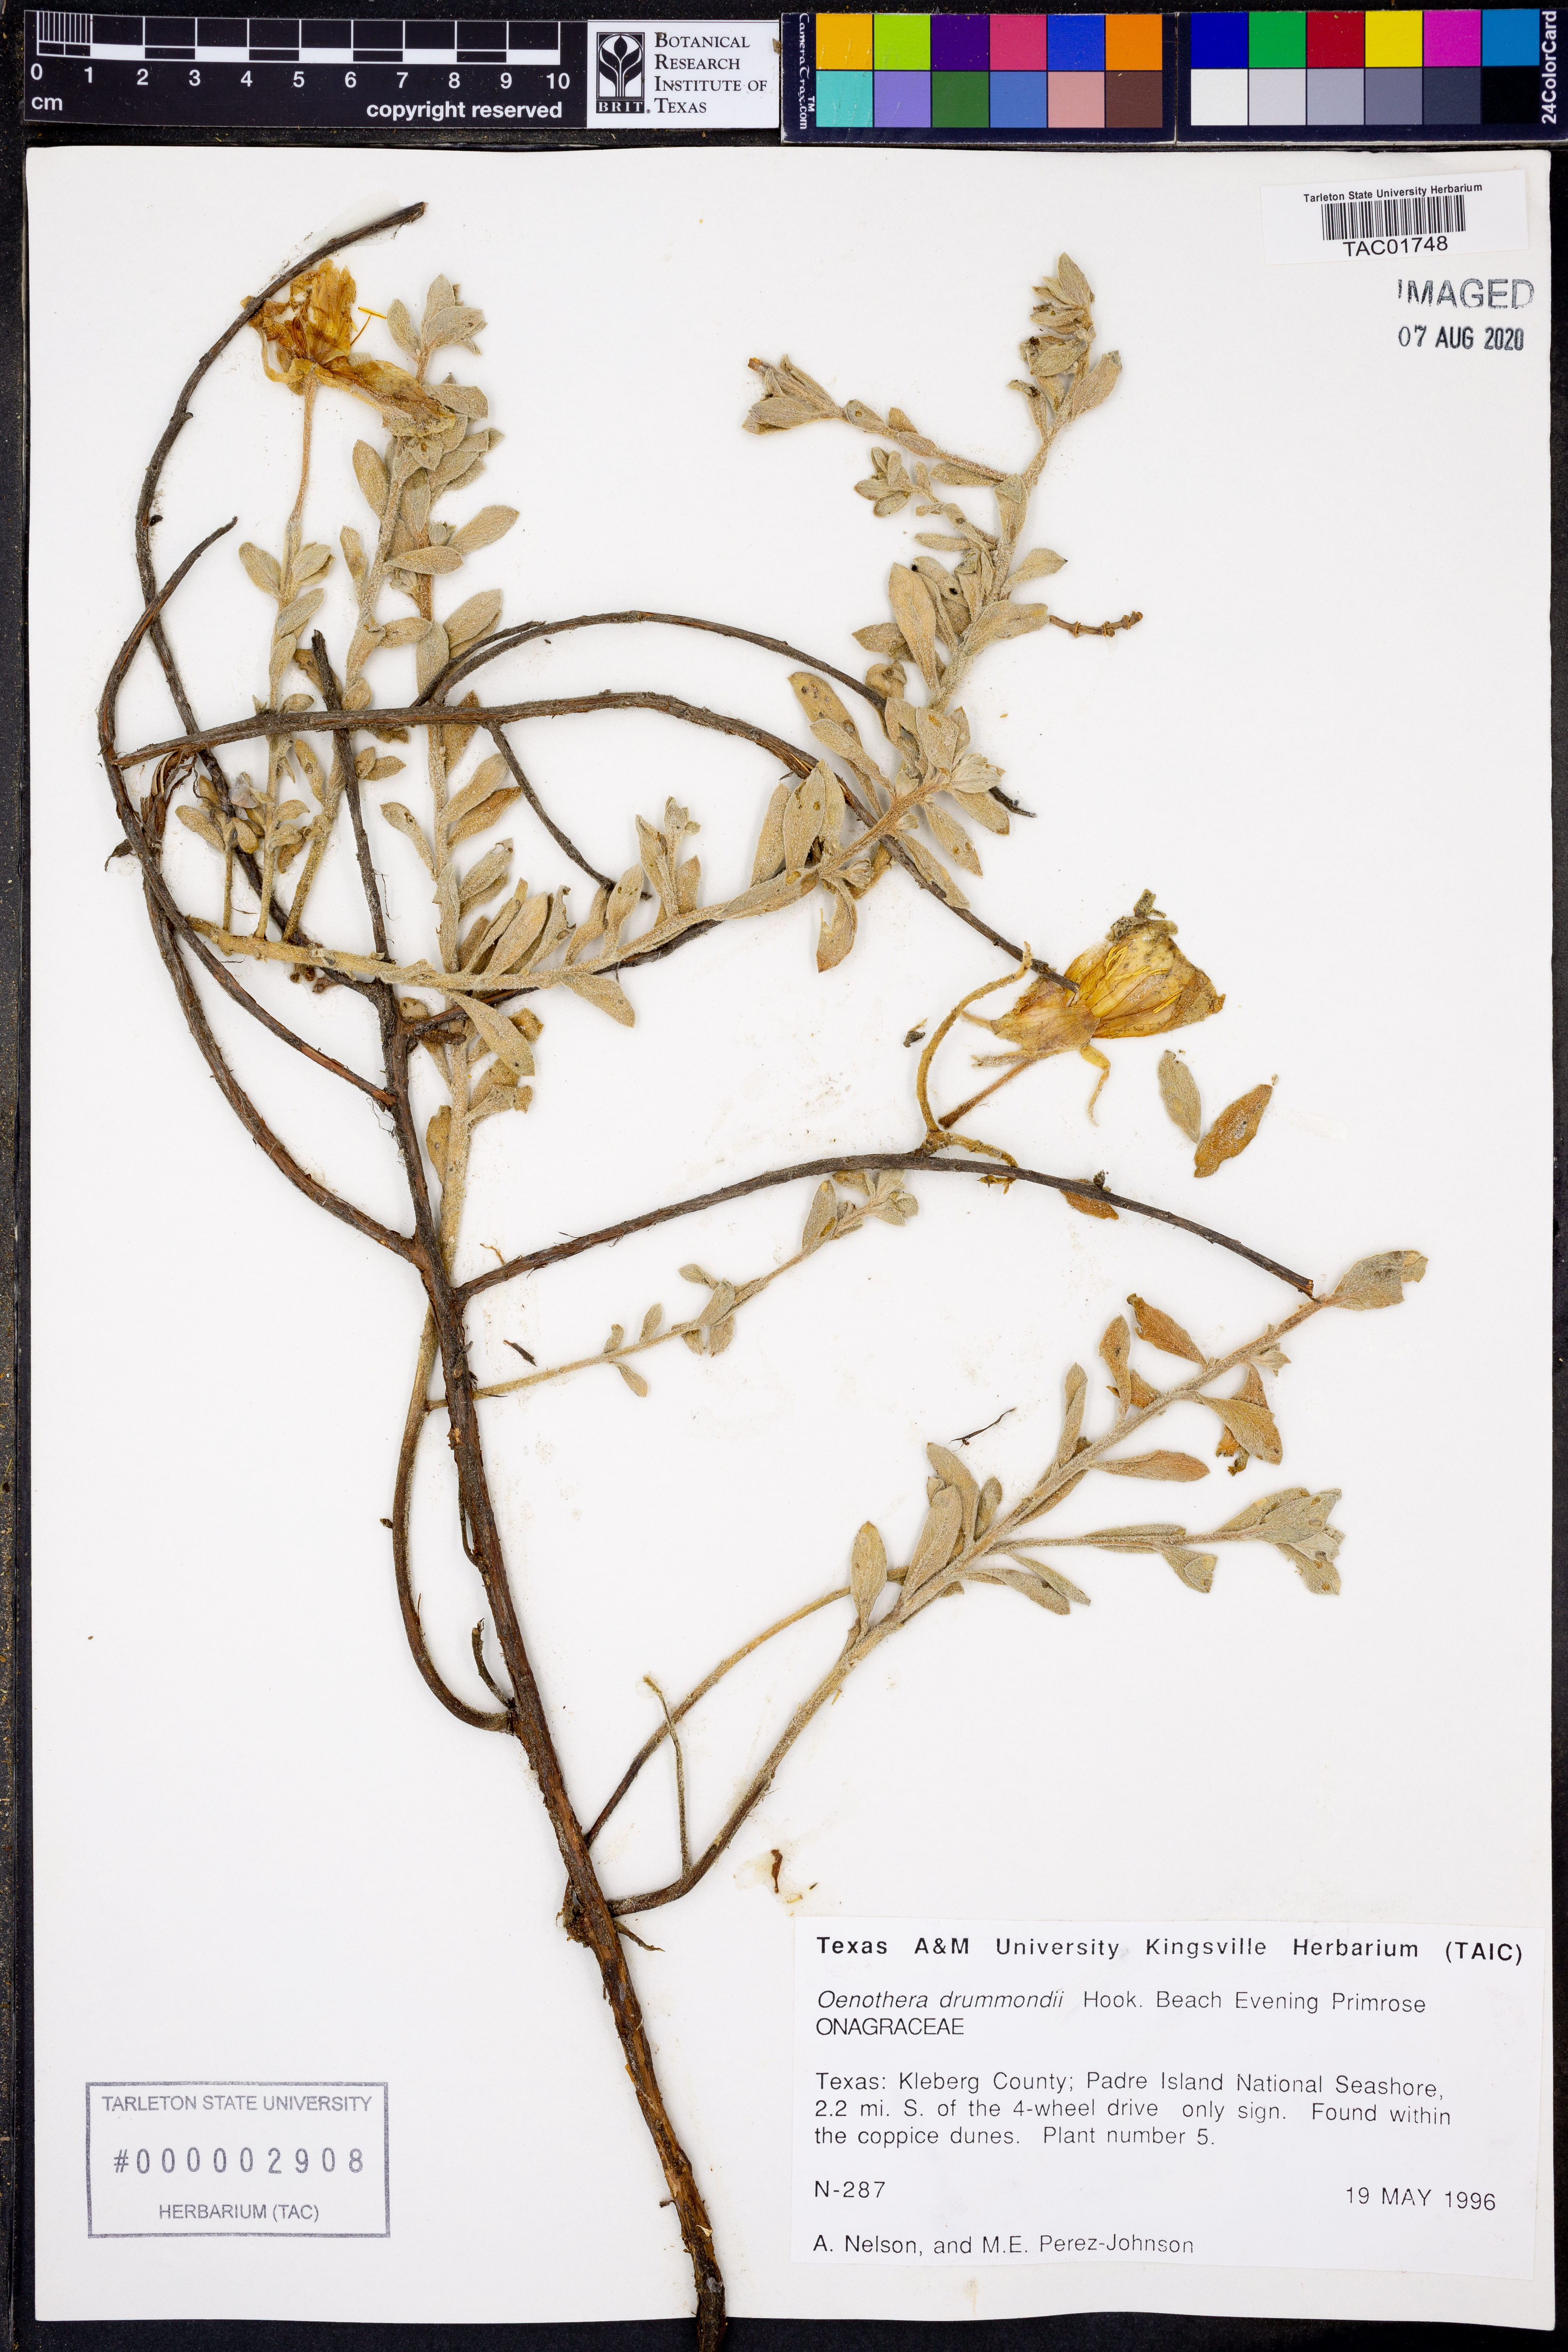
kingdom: Plantae
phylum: Tracheophyta
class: Magnoliopsida
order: Myrtales
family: Onagraceae
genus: Oenothera
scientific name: Oenothera drummondii
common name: Beach evening-primrose
